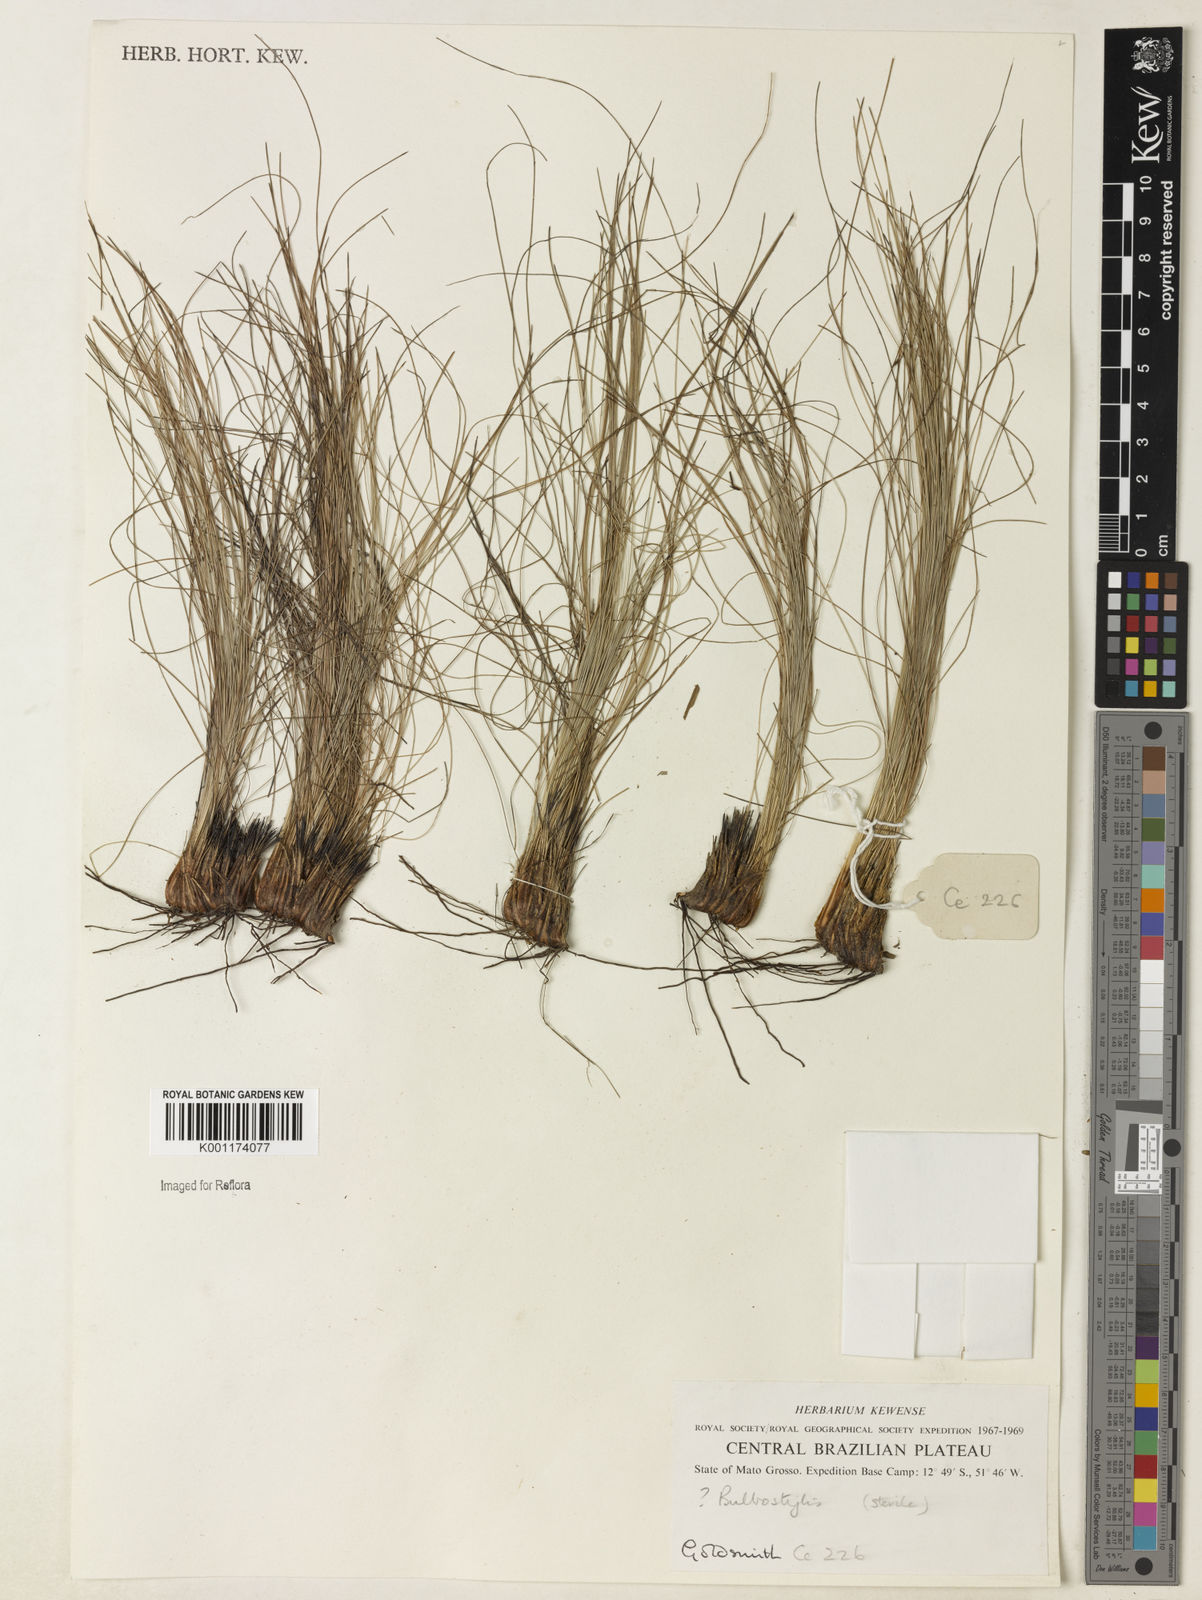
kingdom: Plantae
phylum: Tracheophyta
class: Liliopsida
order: Poales
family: Cyperaceae
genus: Bulbostylis
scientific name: Bulbostylis
